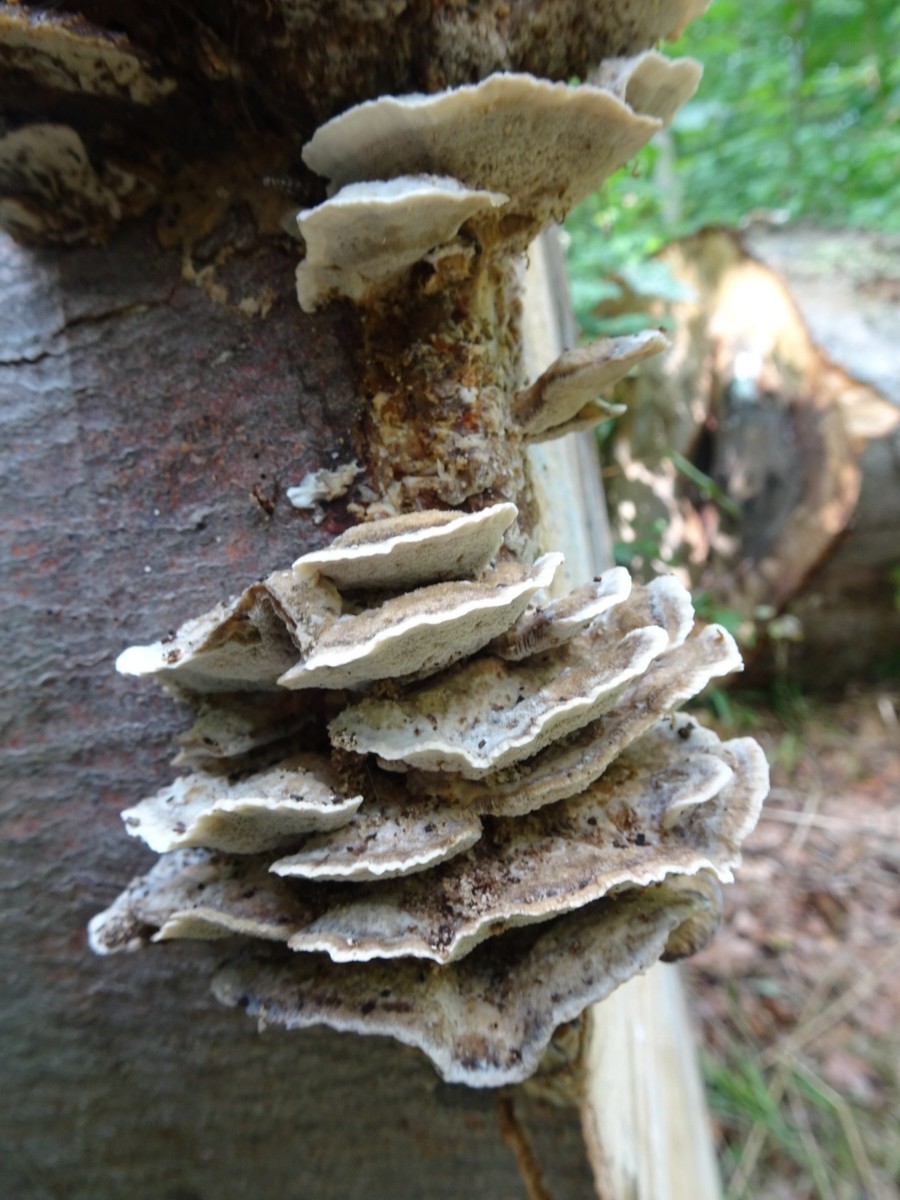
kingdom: Fungi
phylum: Basidiomycota
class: Agaricomycetes
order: Polyporales
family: Phanerochaetaceae
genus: Bjerkandera
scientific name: Bjerkandera adusta
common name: sveden sodporesvamp
